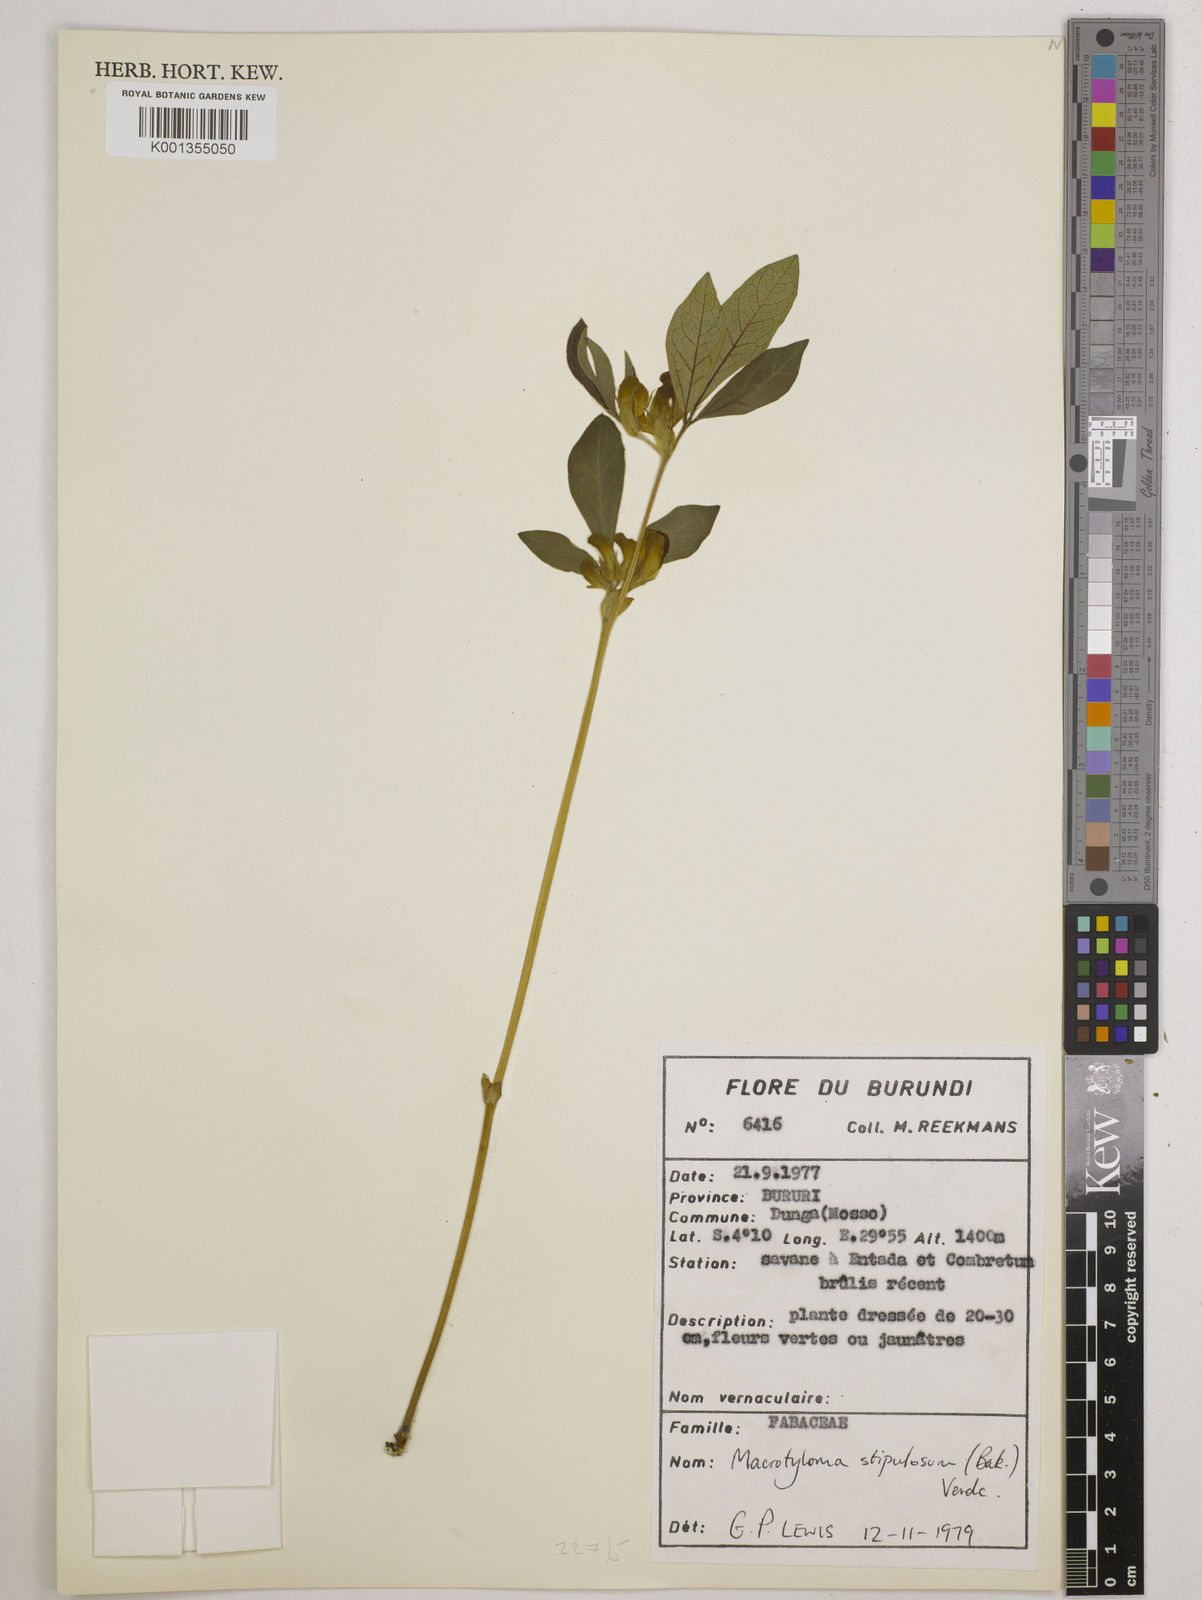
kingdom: Plantae
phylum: Tracheophyta
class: Magnoliopsida
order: Fabales
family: Fabaceae
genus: Macrotyloma
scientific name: Macrotyloma stipulosum
